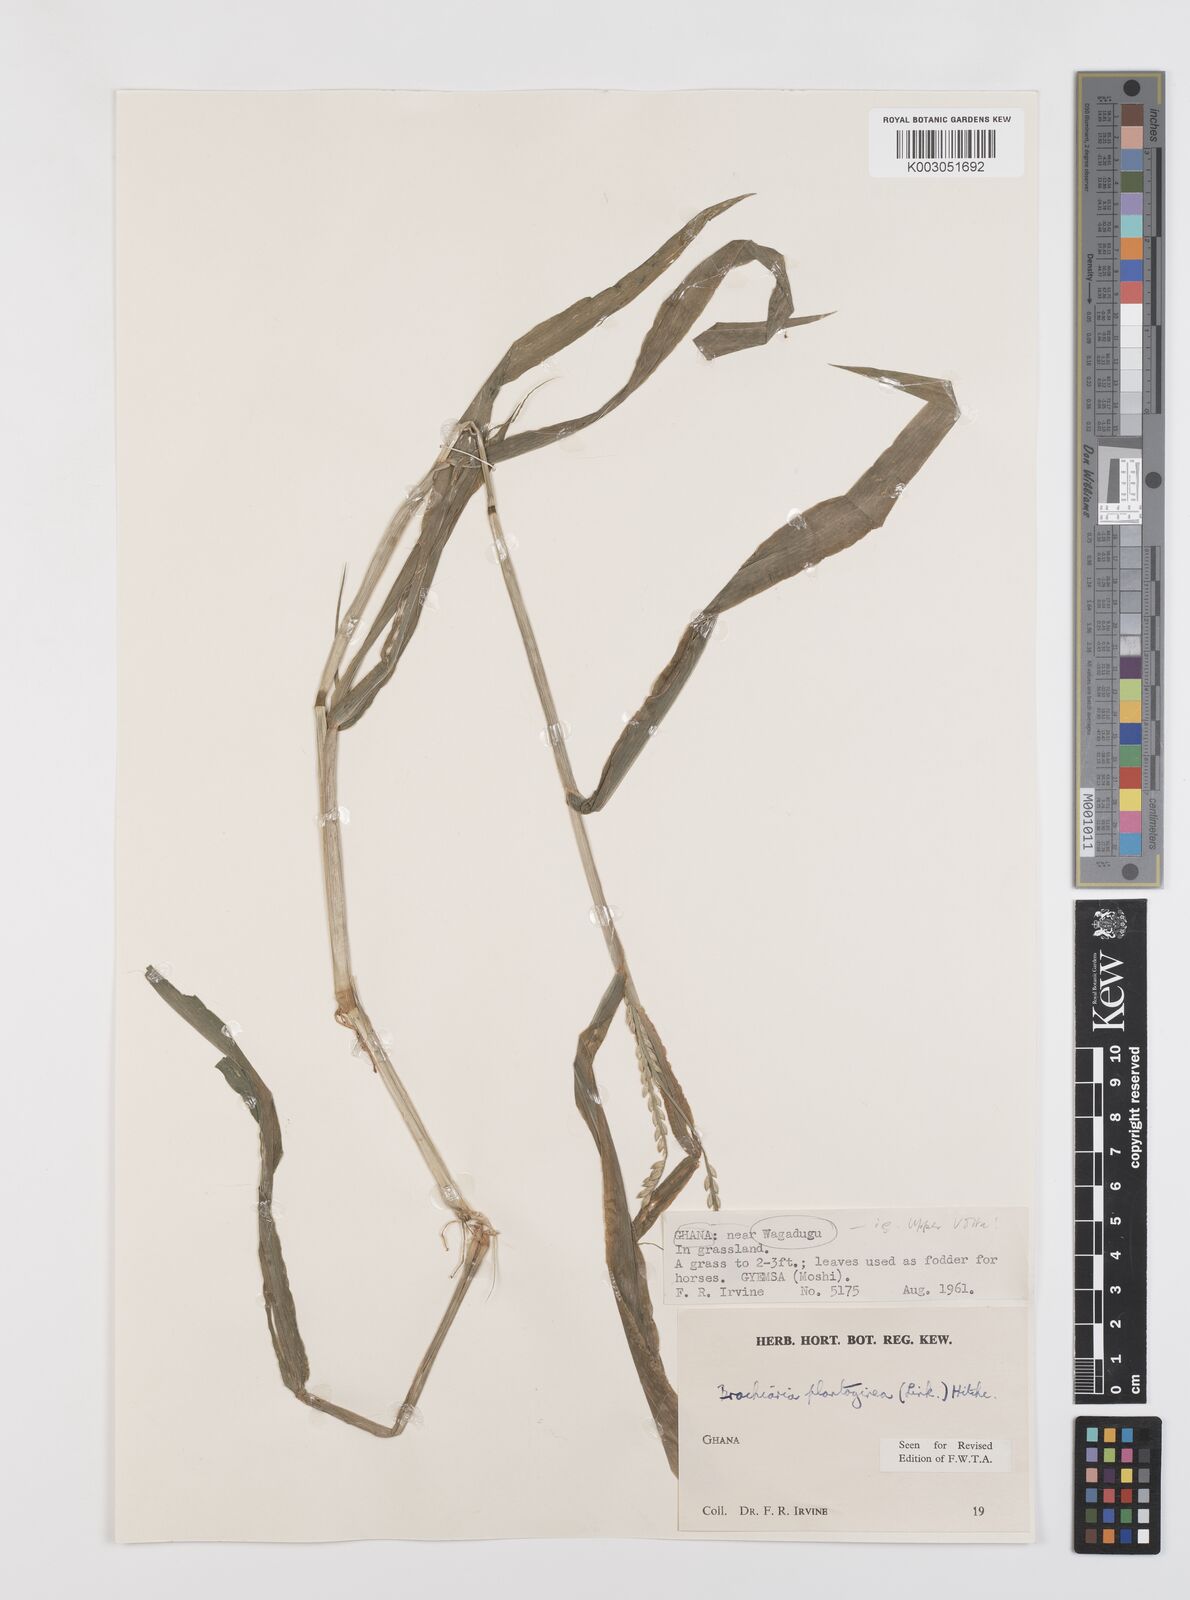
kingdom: Plantae
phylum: Tracheophyta
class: Liliopsida
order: Poales
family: Poaceae
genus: Urochloa
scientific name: Urochloa plantaginea
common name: Plantain signalgrass
